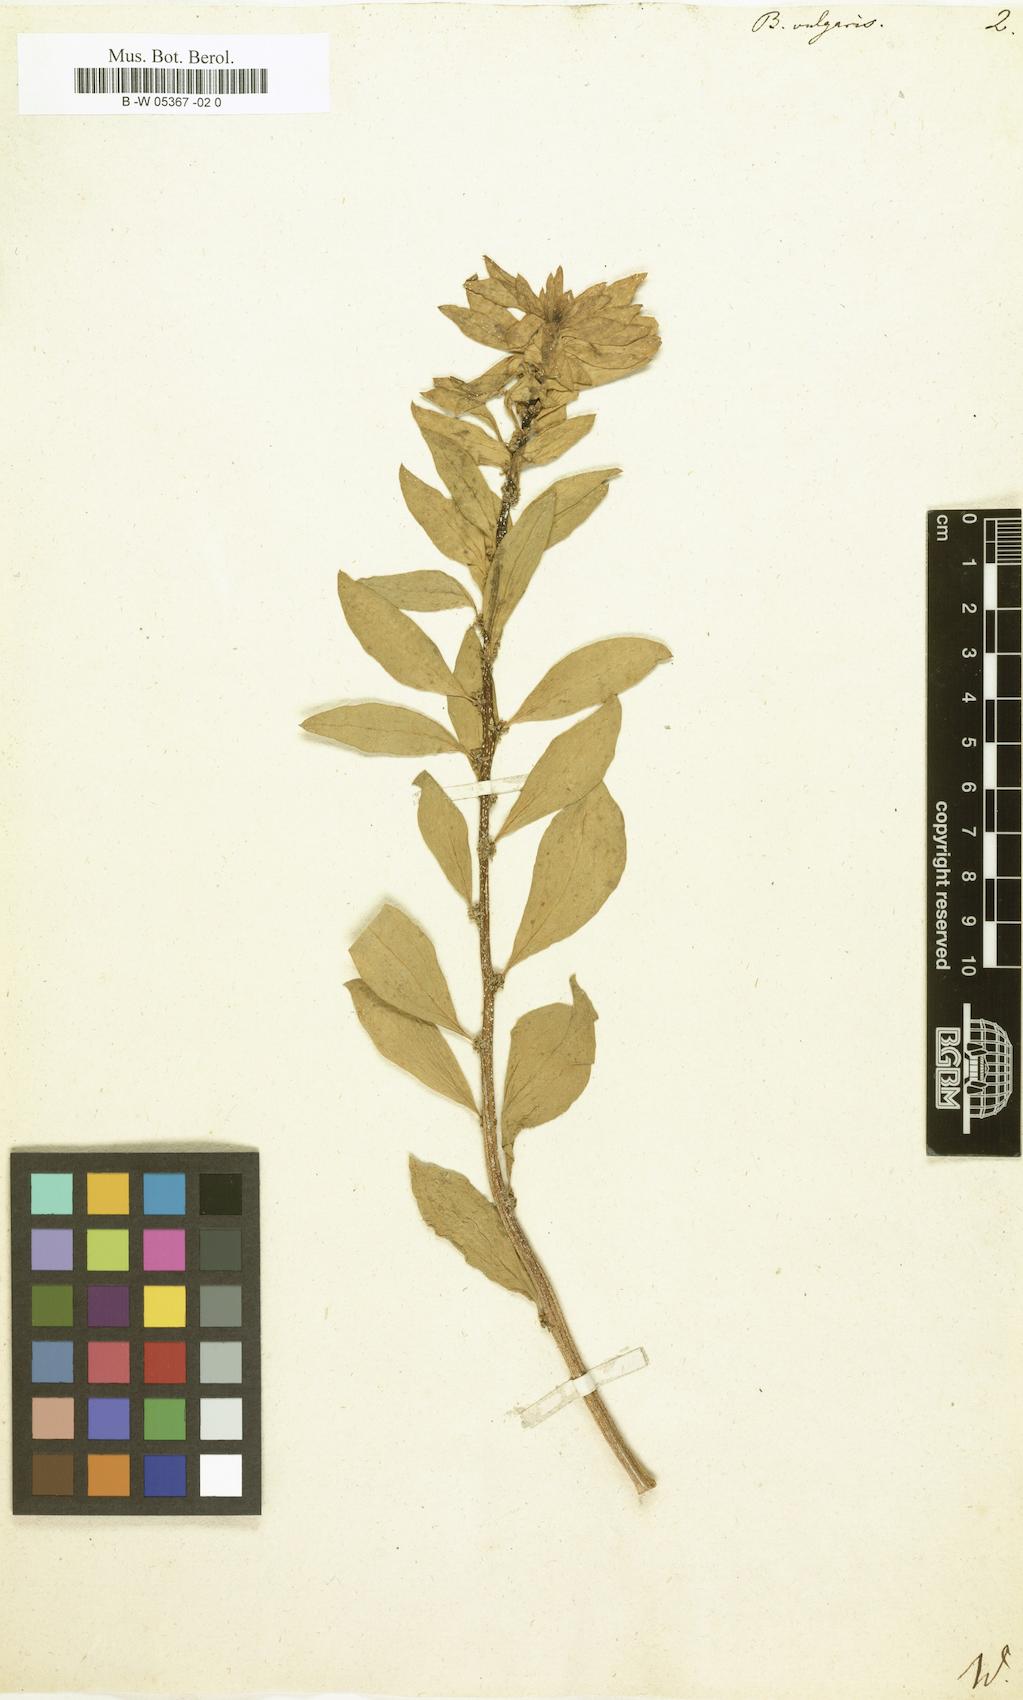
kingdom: Plantae
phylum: Tracheophyta
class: Magnoliopsida
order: Caryophyllales
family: Amaranthaceae
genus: Beta
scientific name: Beta vulgaris
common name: Beet
